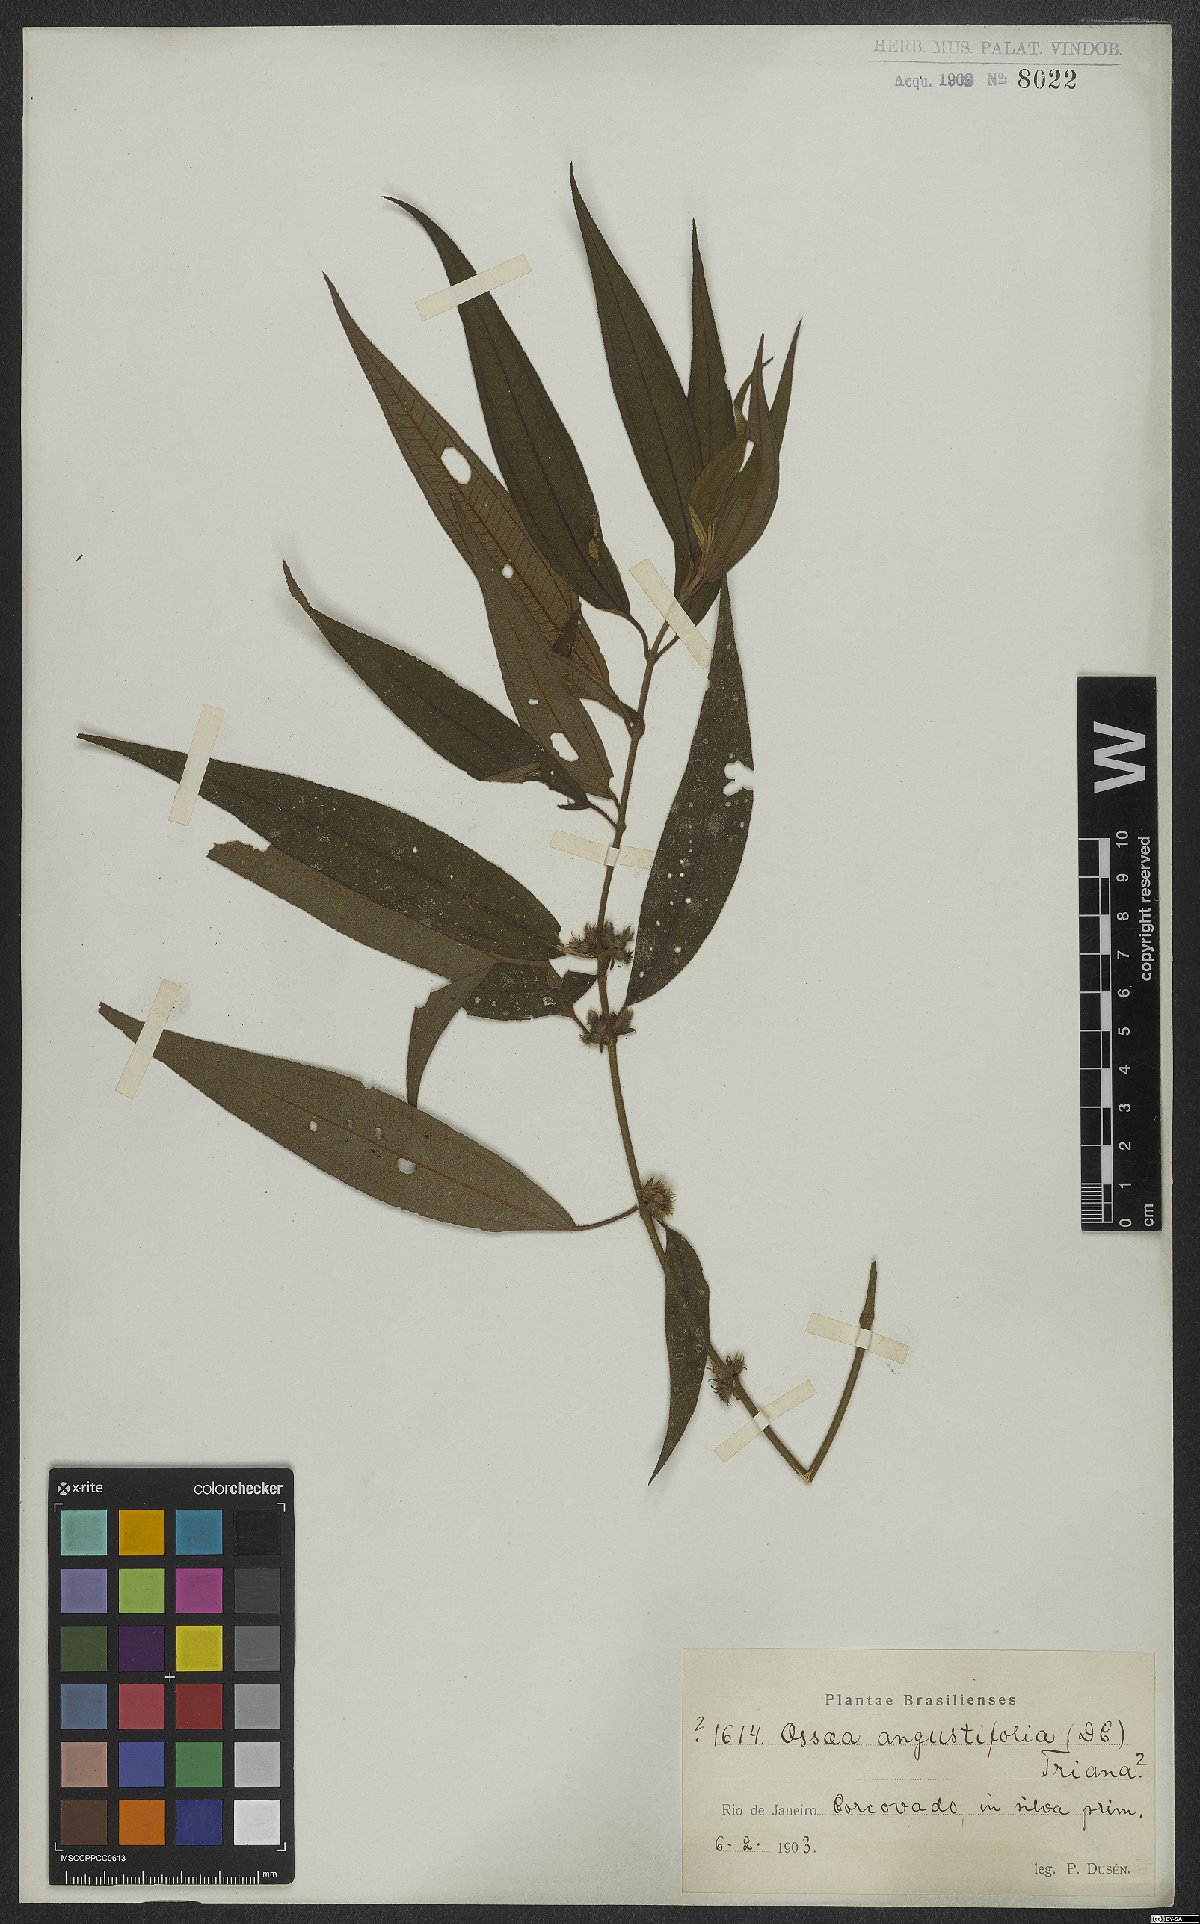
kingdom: Plantae
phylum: Tracheophyta
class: Magnoliopsida
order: Myrtales
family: Melastomataceae
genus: Miconia
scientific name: Miconia corcovadensis
